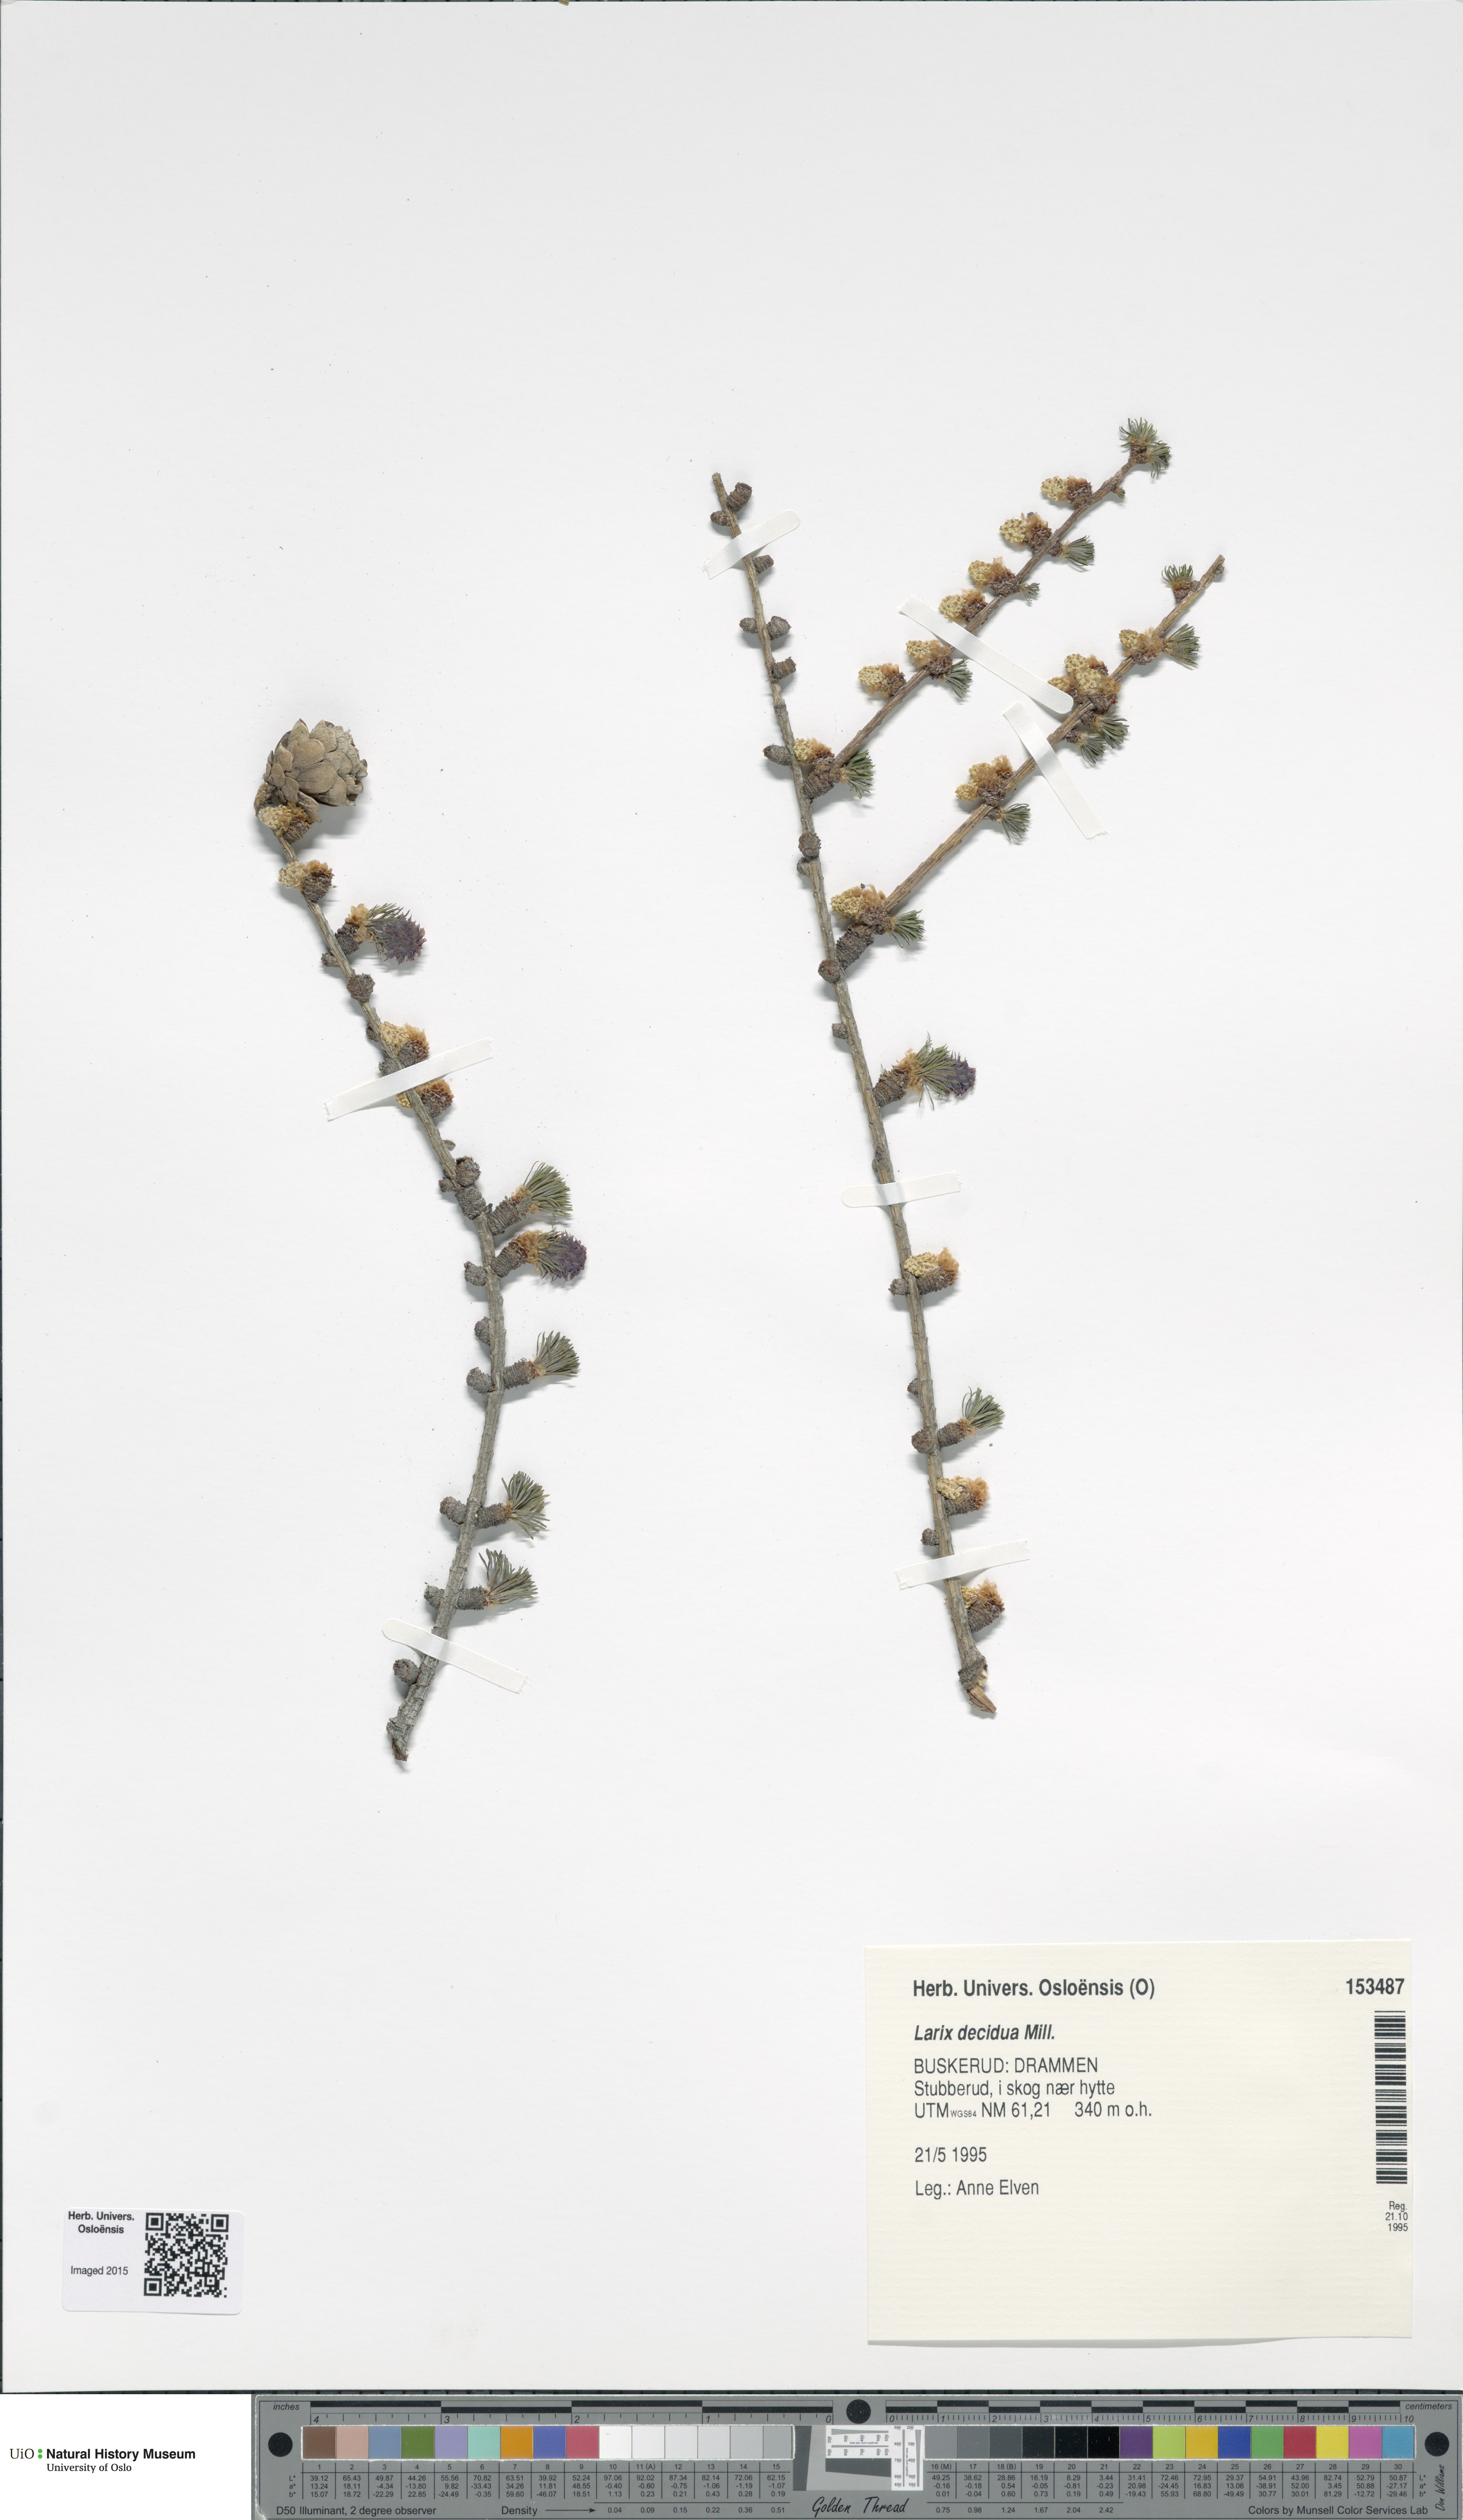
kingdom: Plantae
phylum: Tracheophyta
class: Pinopsida
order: Pinales
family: Pinaceae
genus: Larix
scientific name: Larix decidua
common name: European larch
